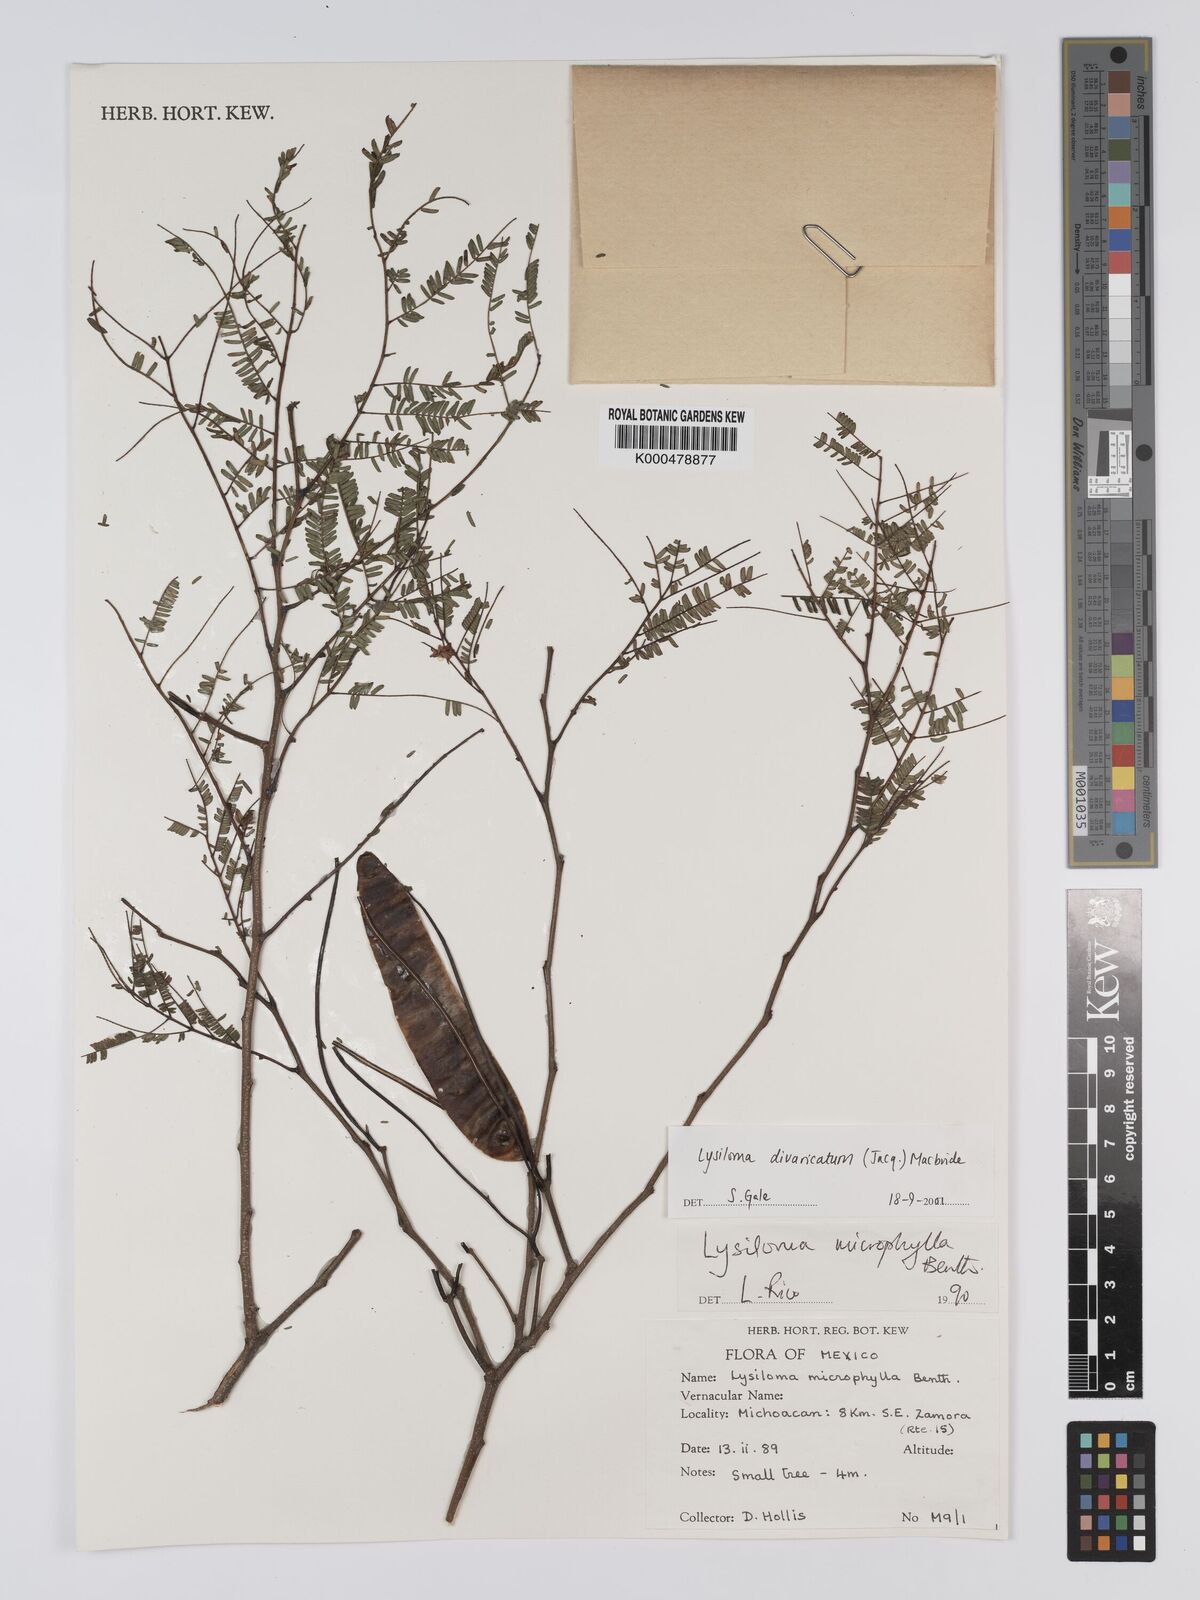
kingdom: Plantae
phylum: Tracheophyta
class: Magnoliopsida
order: Fabales
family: Fabaceae
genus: Lysiloma
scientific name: Lysiloma divaricatum
